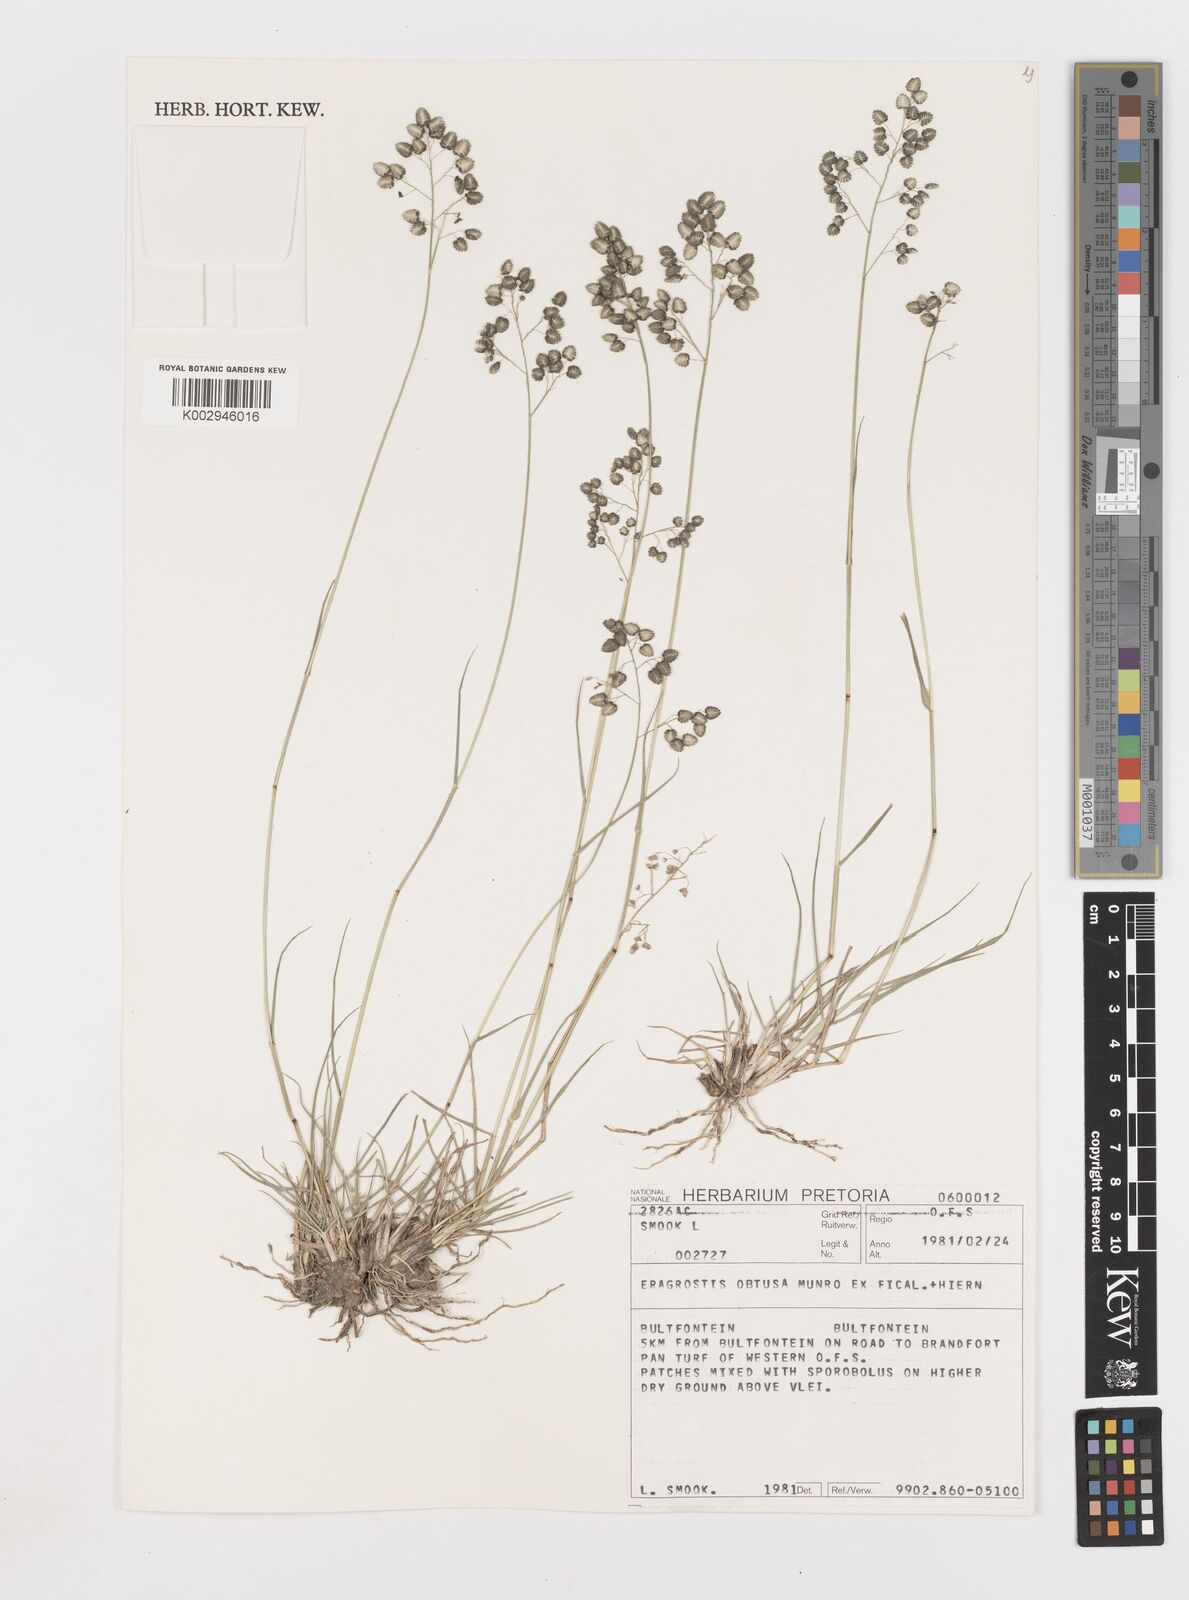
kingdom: Plantae
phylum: Tracheophyta
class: Liliopsida
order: Poales
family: Poaceae
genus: Eragrostis
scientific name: Eragrostis obtusa
